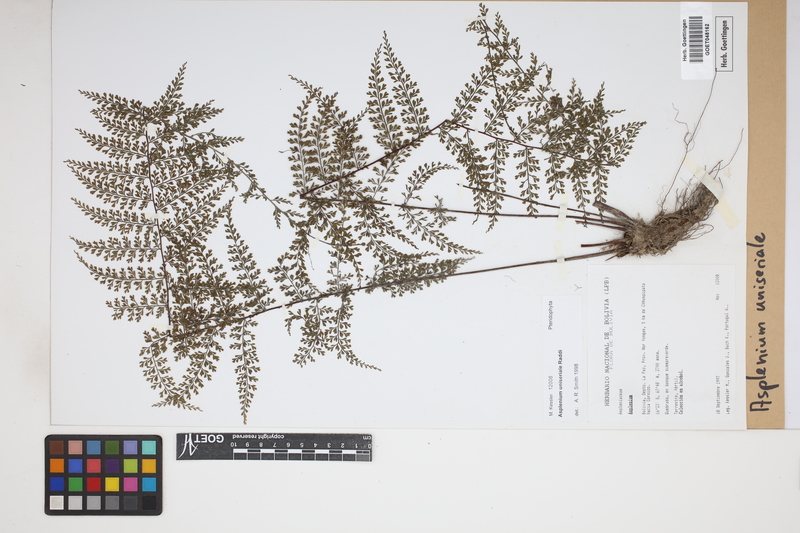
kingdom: Plantae
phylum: Tracheophyta
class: Polypodiopsida
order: Polypodiales
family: Aspleniaceae
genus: Asplenium
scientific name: Asplenium uniseriale
